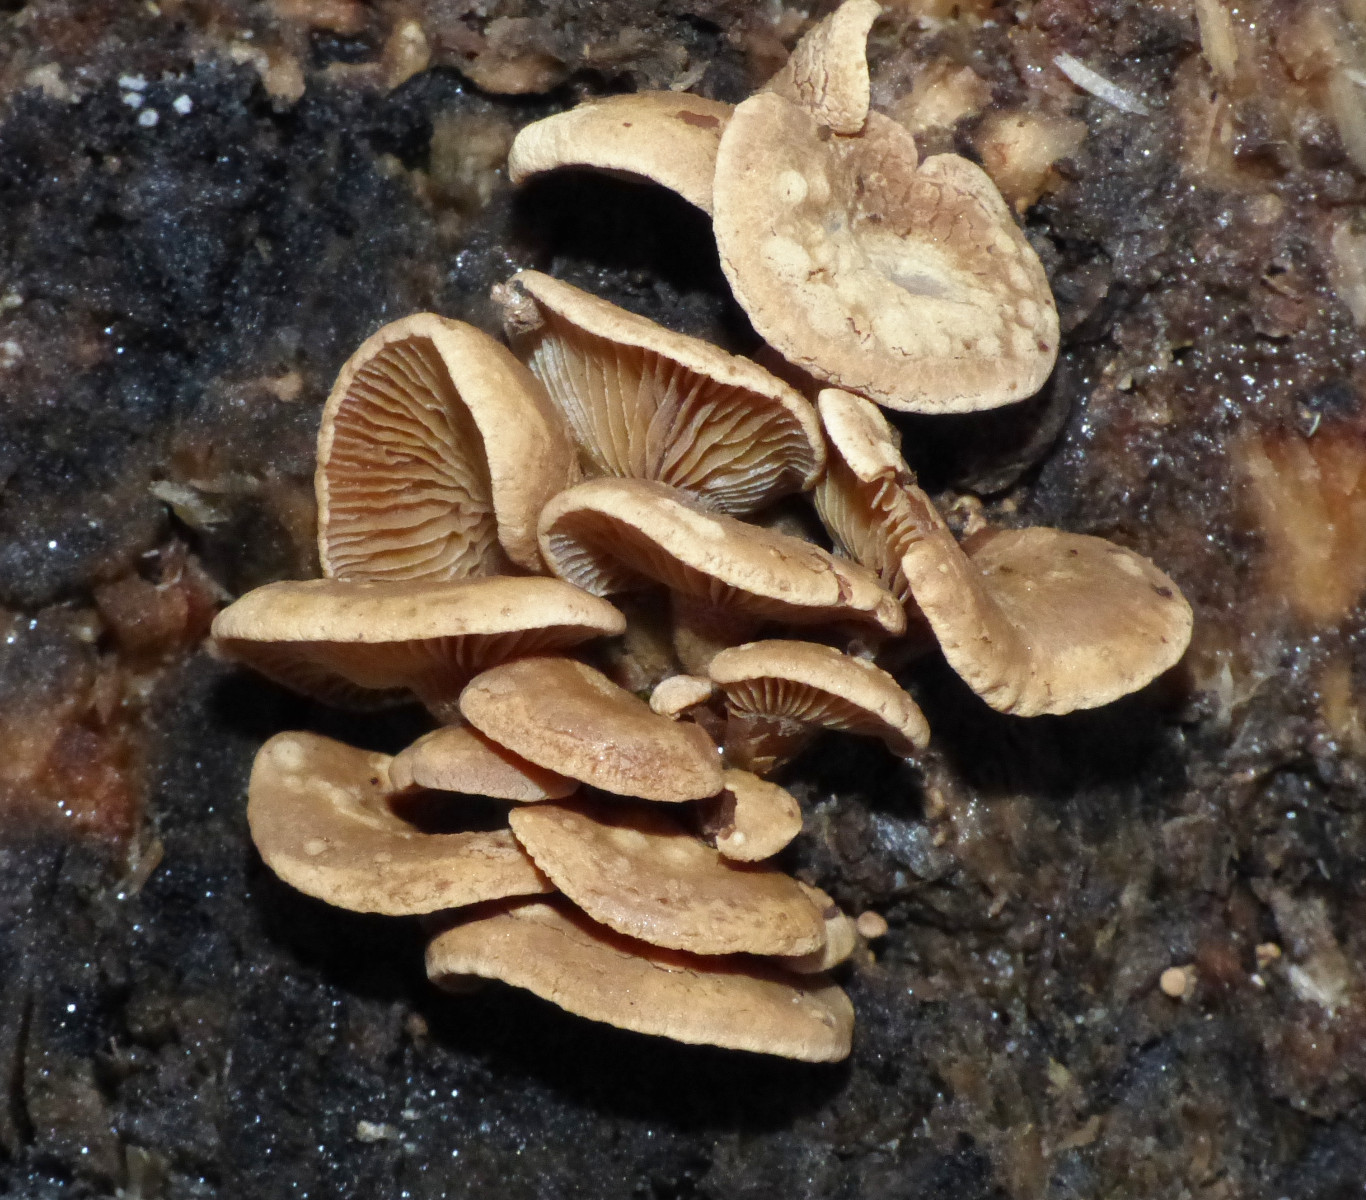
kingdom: Fungi
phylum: Basidiomycota
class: Agaricomycetes
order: Agaricales
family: Mycenaceae
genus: Panellus
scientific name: Panellus stipticus
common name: kliddet epaulethat
